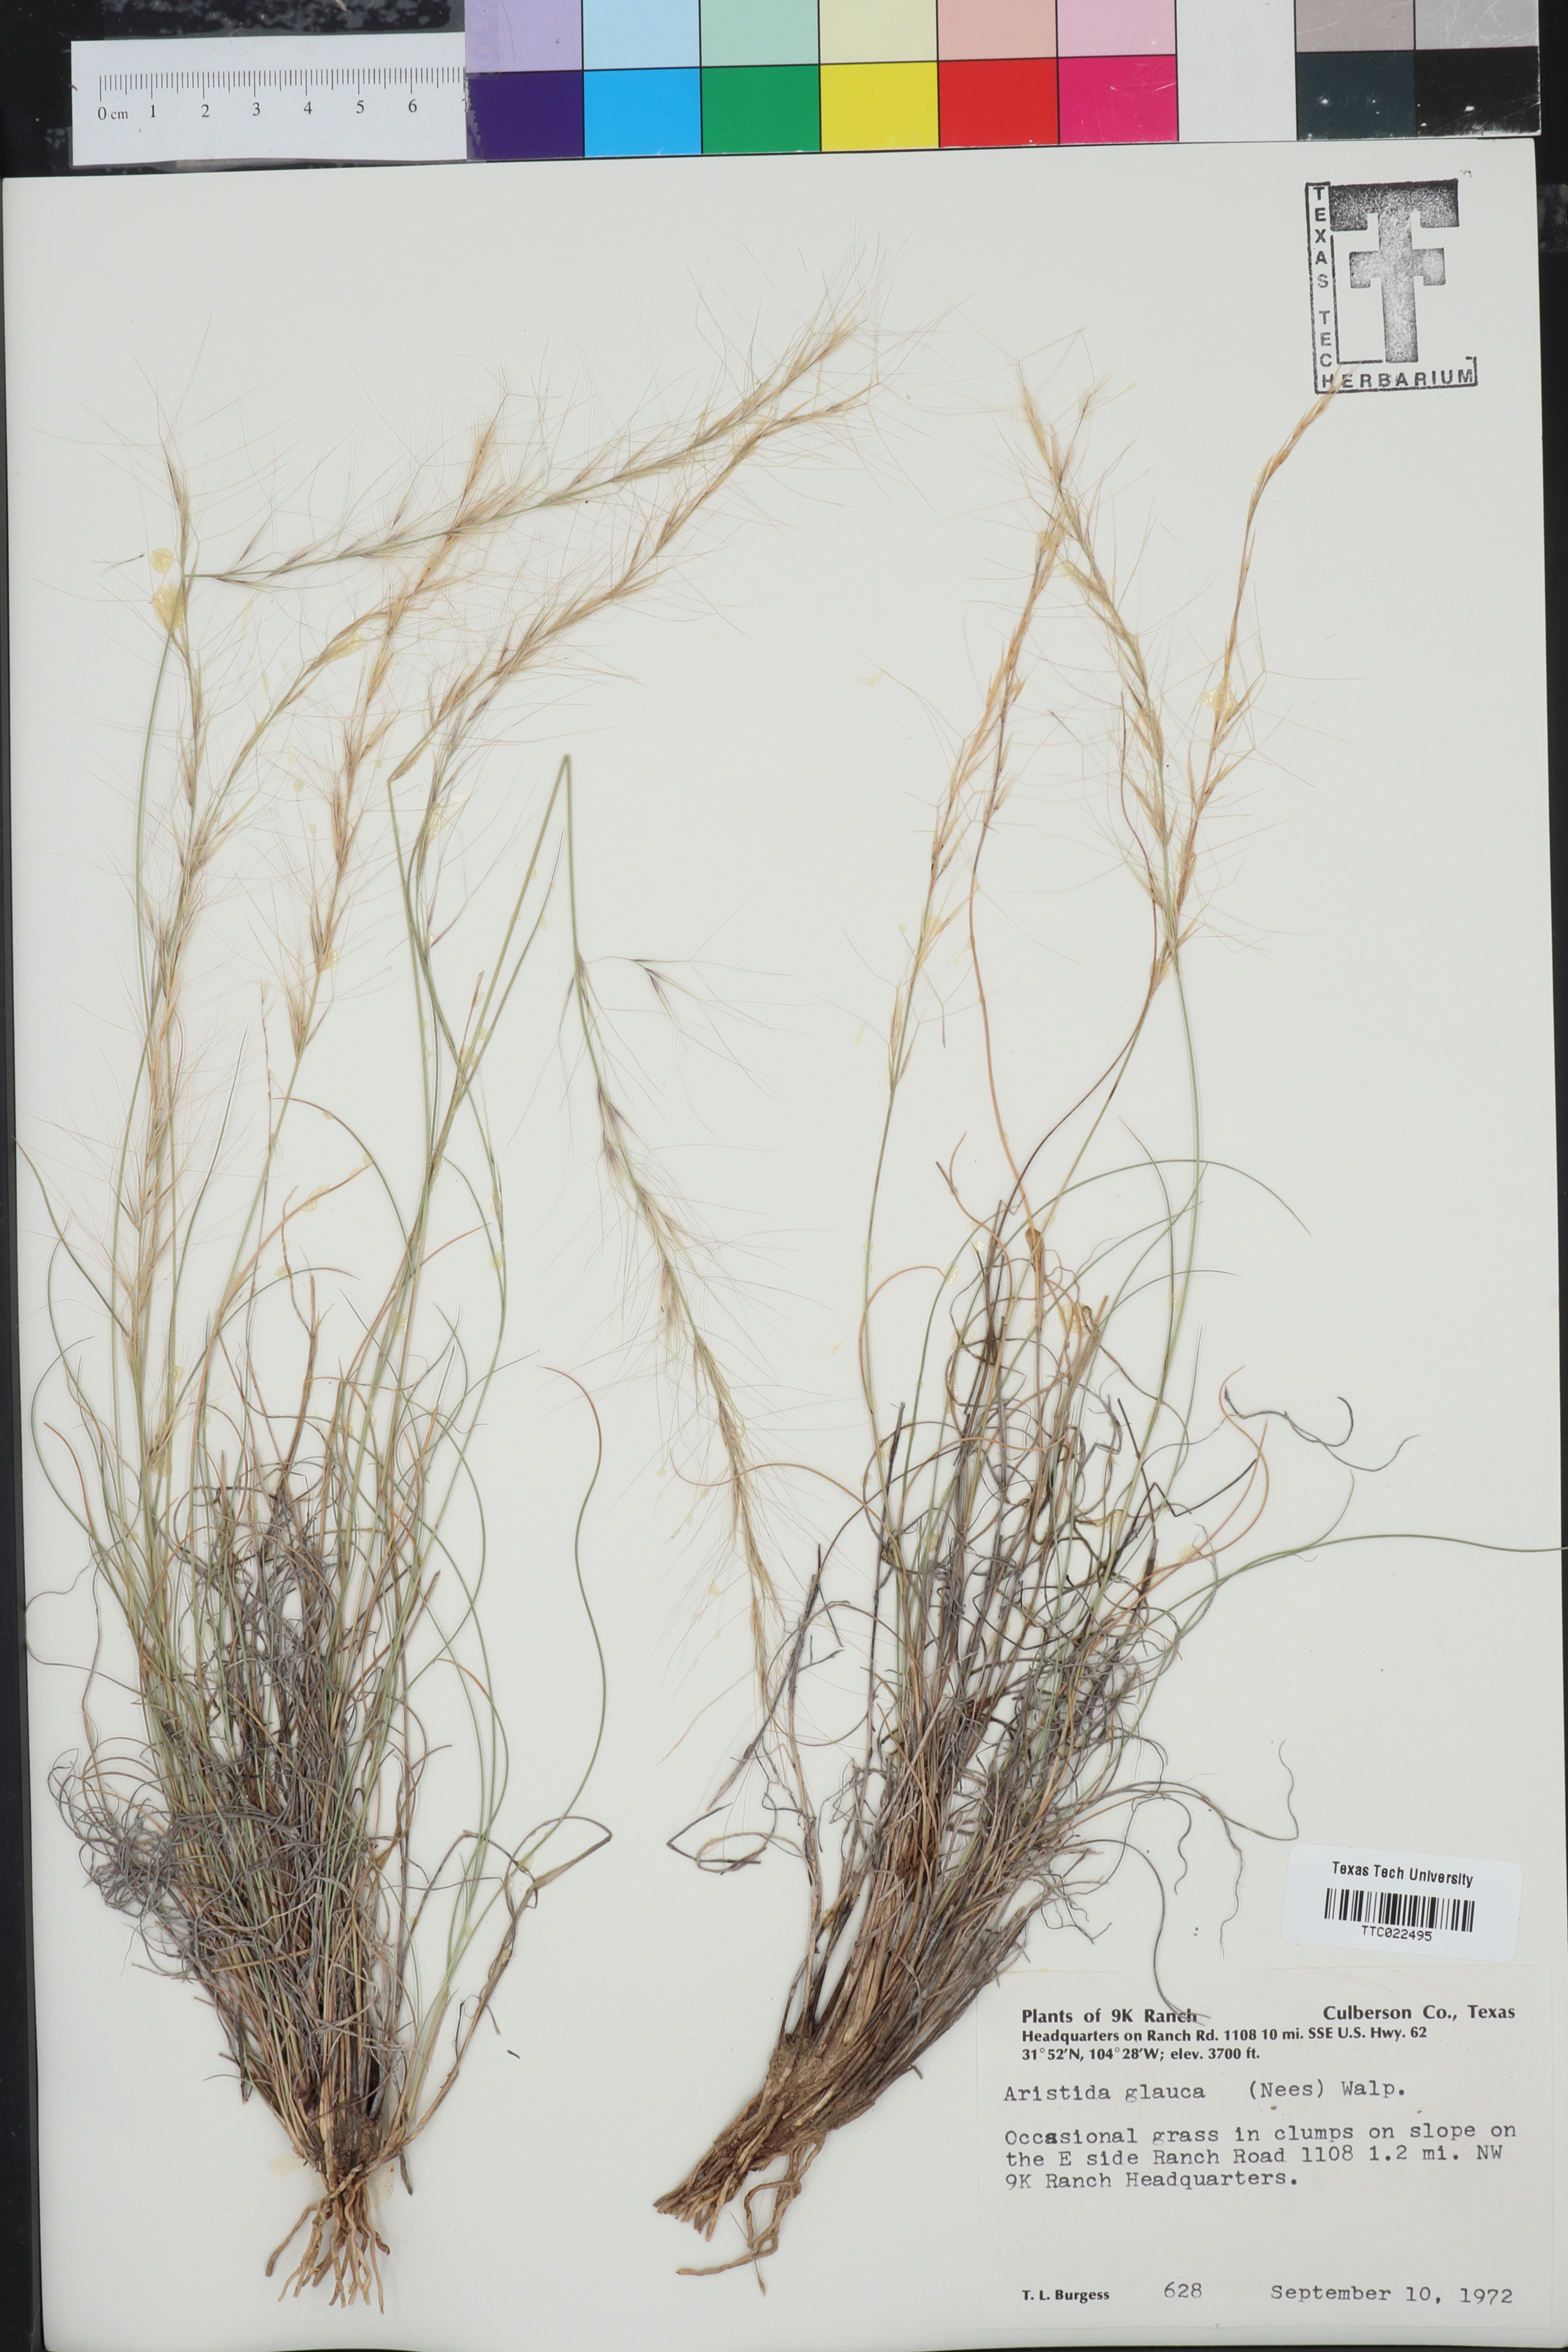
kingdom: Plantae
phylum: Tracheophyta
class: Liliopsida
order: Poales
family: Poaceae
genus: Aristida
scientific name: Aristida glauca
